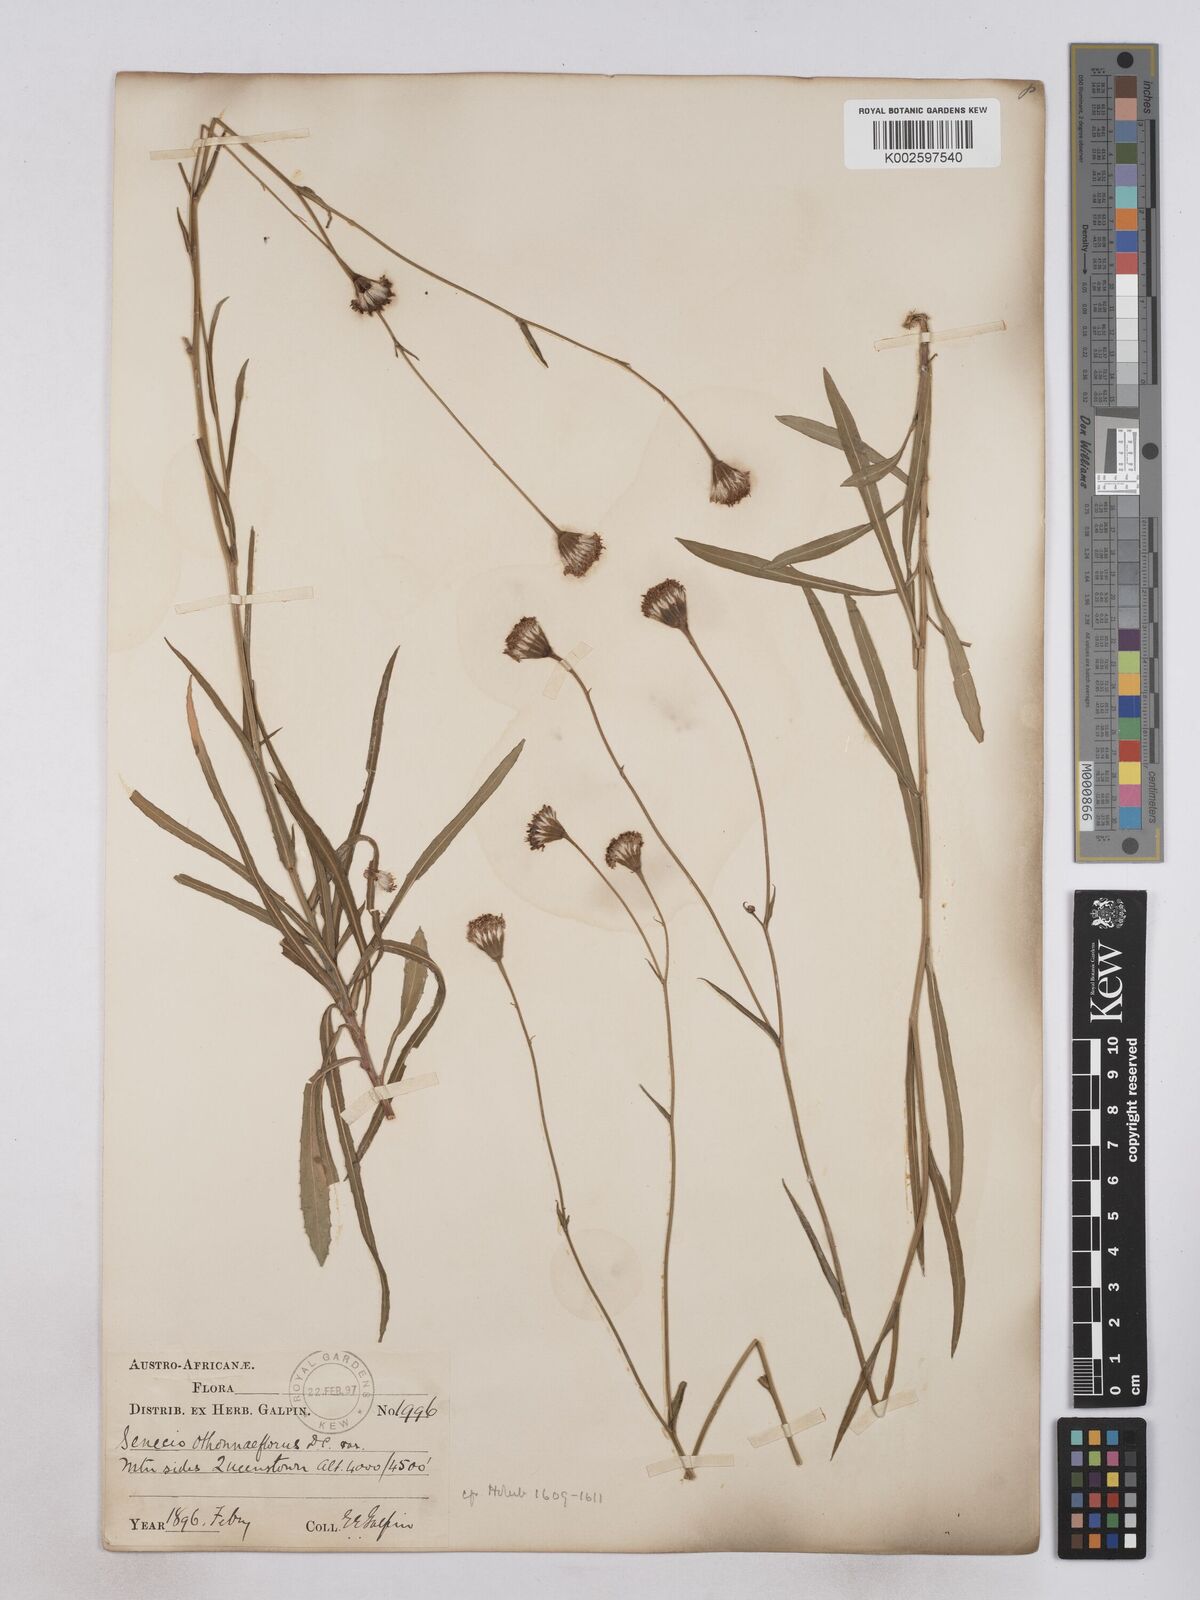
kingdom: Plantae
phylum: Tracheophyta
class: Magnoliopsida
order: Asterales
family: Asteraceae
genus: Senecio
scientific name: Senecio othonniflorus
